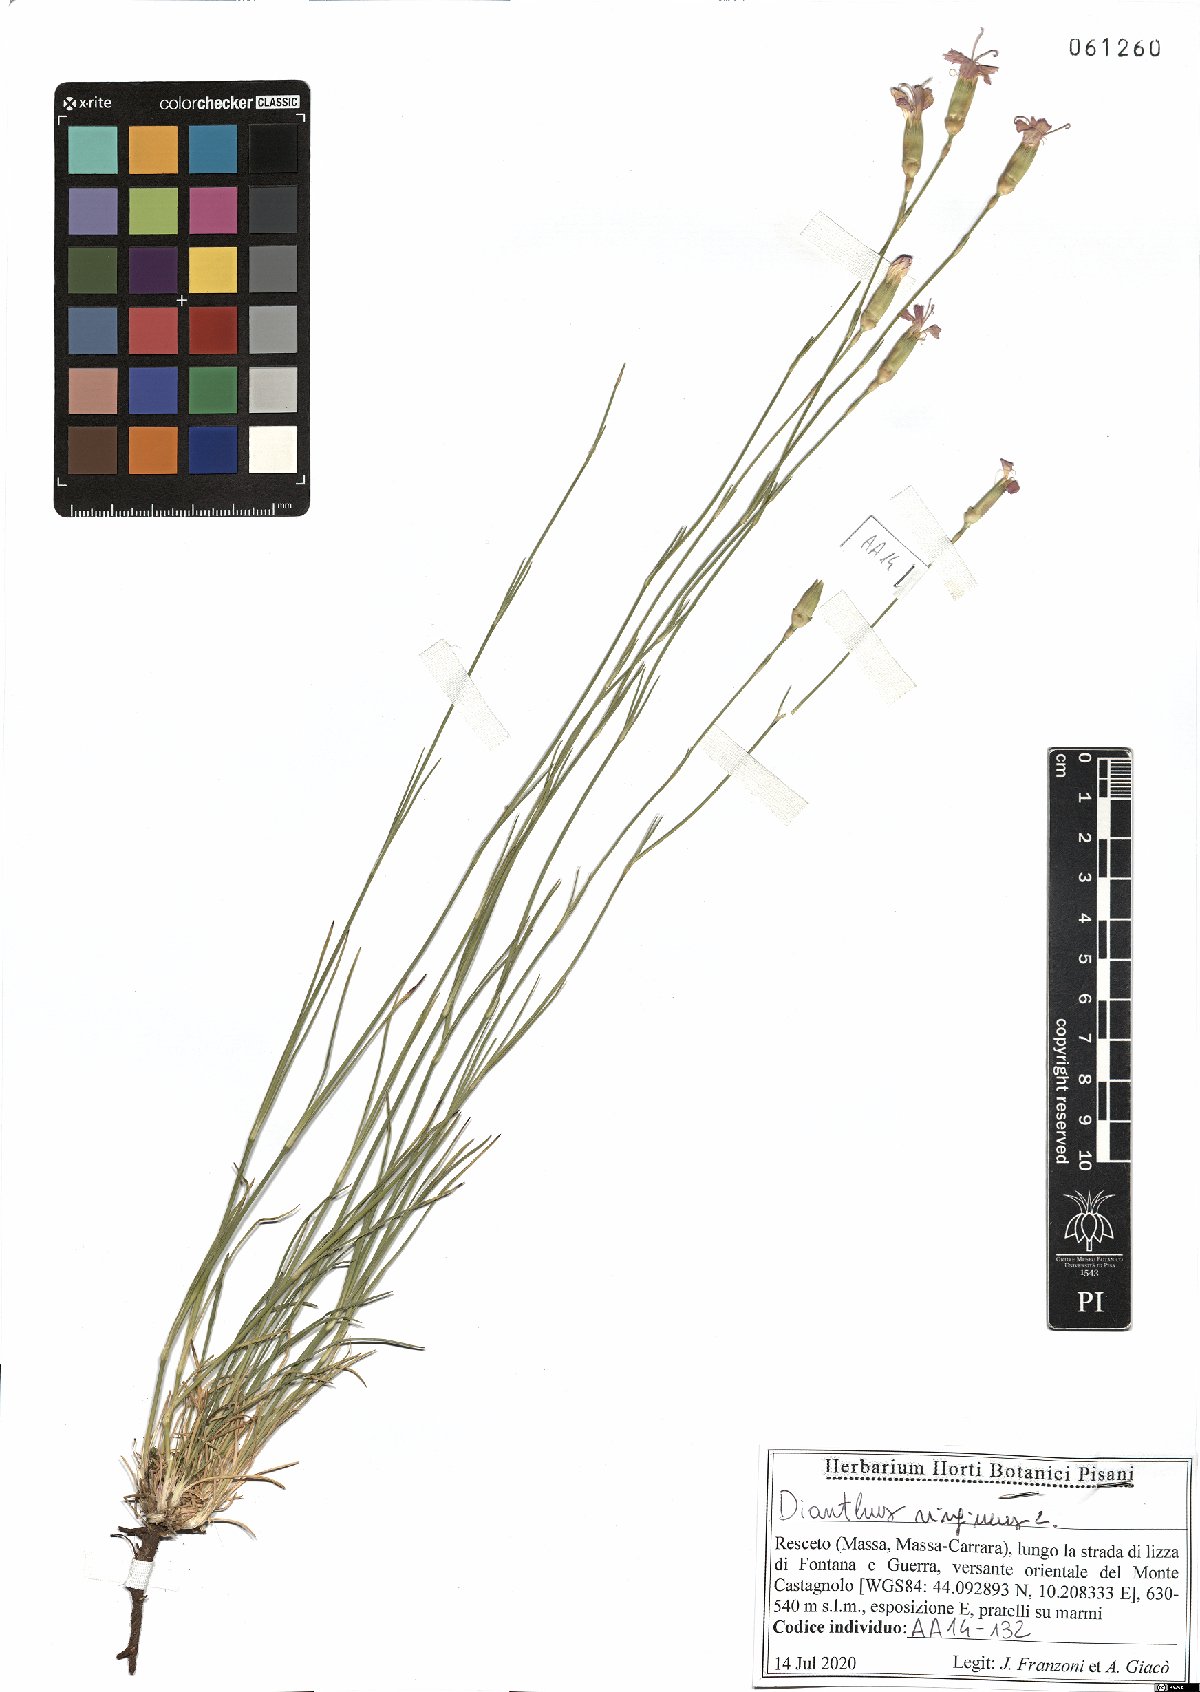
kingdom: Plantae
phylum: Tracheophyta
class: Magnoliopsida
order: Caryophyllales
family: Caryophyllaceae
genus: Dianthus
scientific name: Dianthus virgineus
